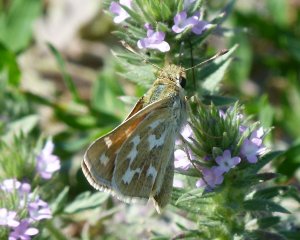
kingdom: Animalia
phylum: Arthropoda
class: Insecta
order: Lepidoptera
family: Hesperiidae
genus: Hesperia
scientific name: Hesperia comma
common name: Western Branded Skipper
